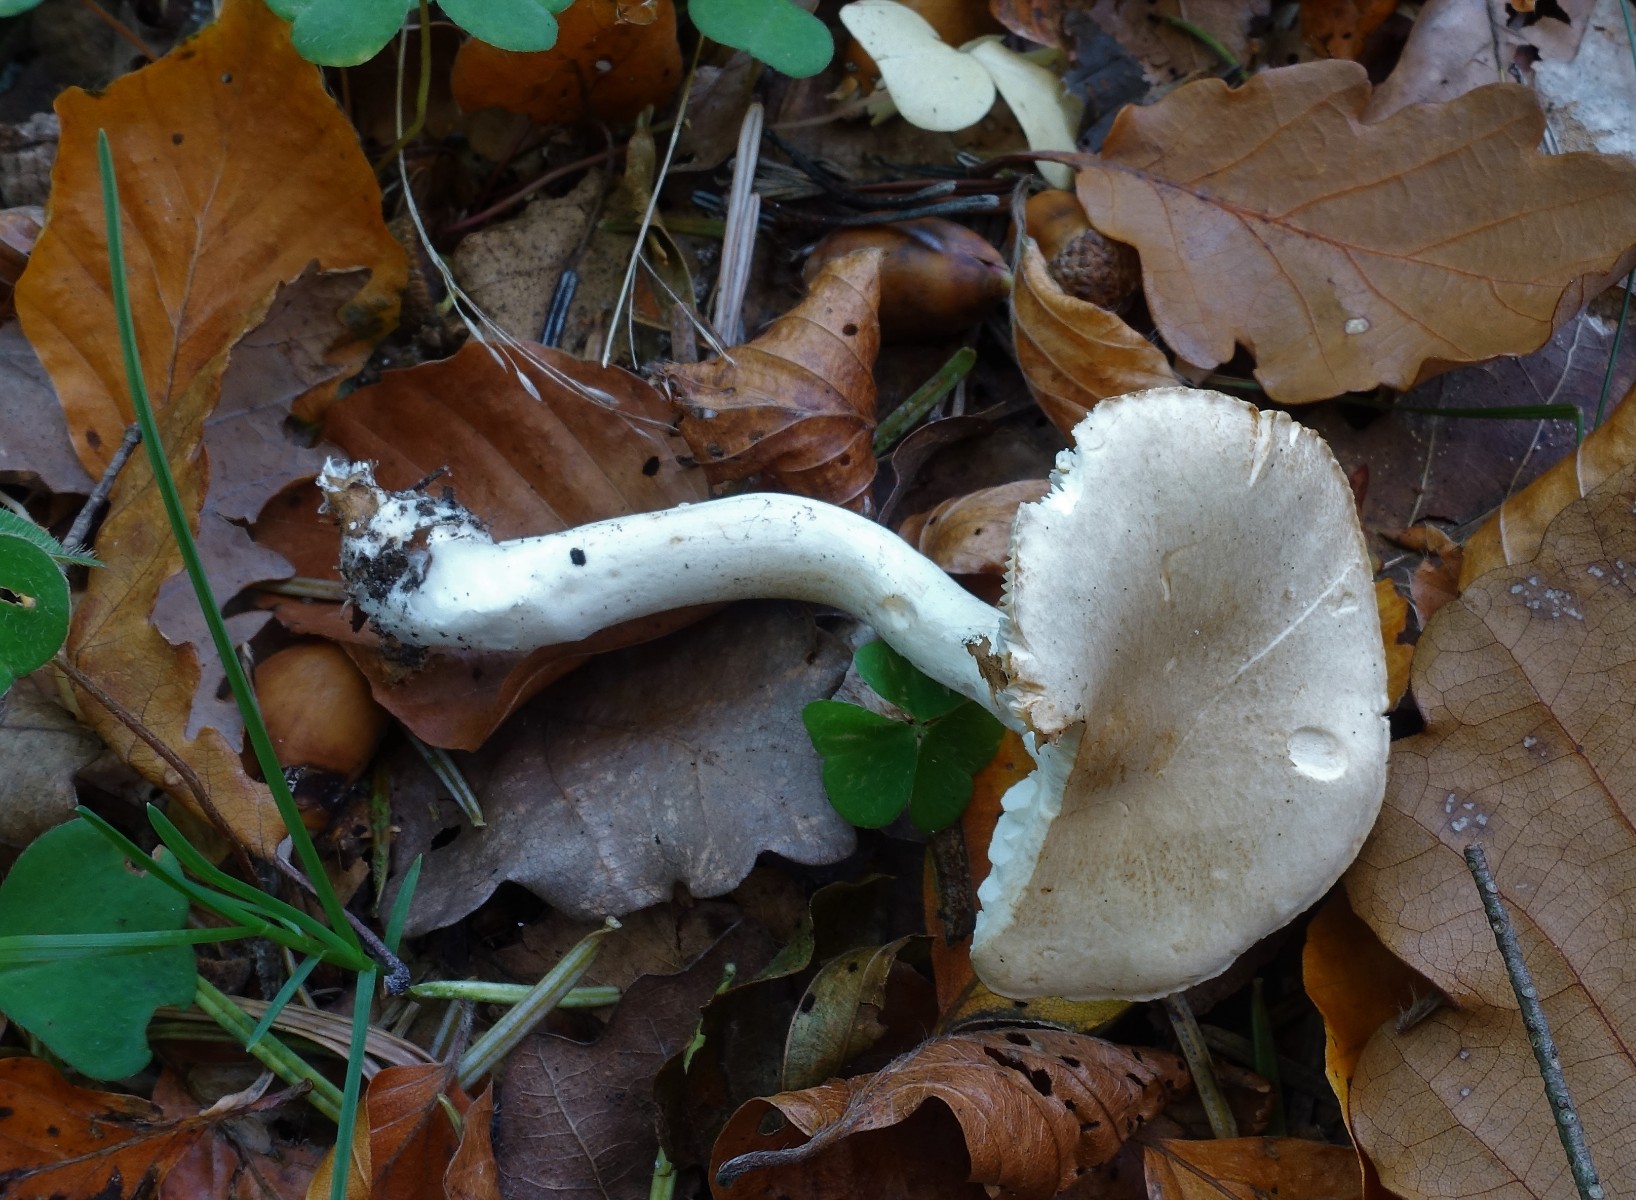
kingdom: Fungi
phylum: Basidiomycota
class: Agaricomycetes
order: Agaricales
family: Tricholomataceae
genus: Tricholoma
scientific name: Tricholoma lascivum
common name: stinkende ridderhat
